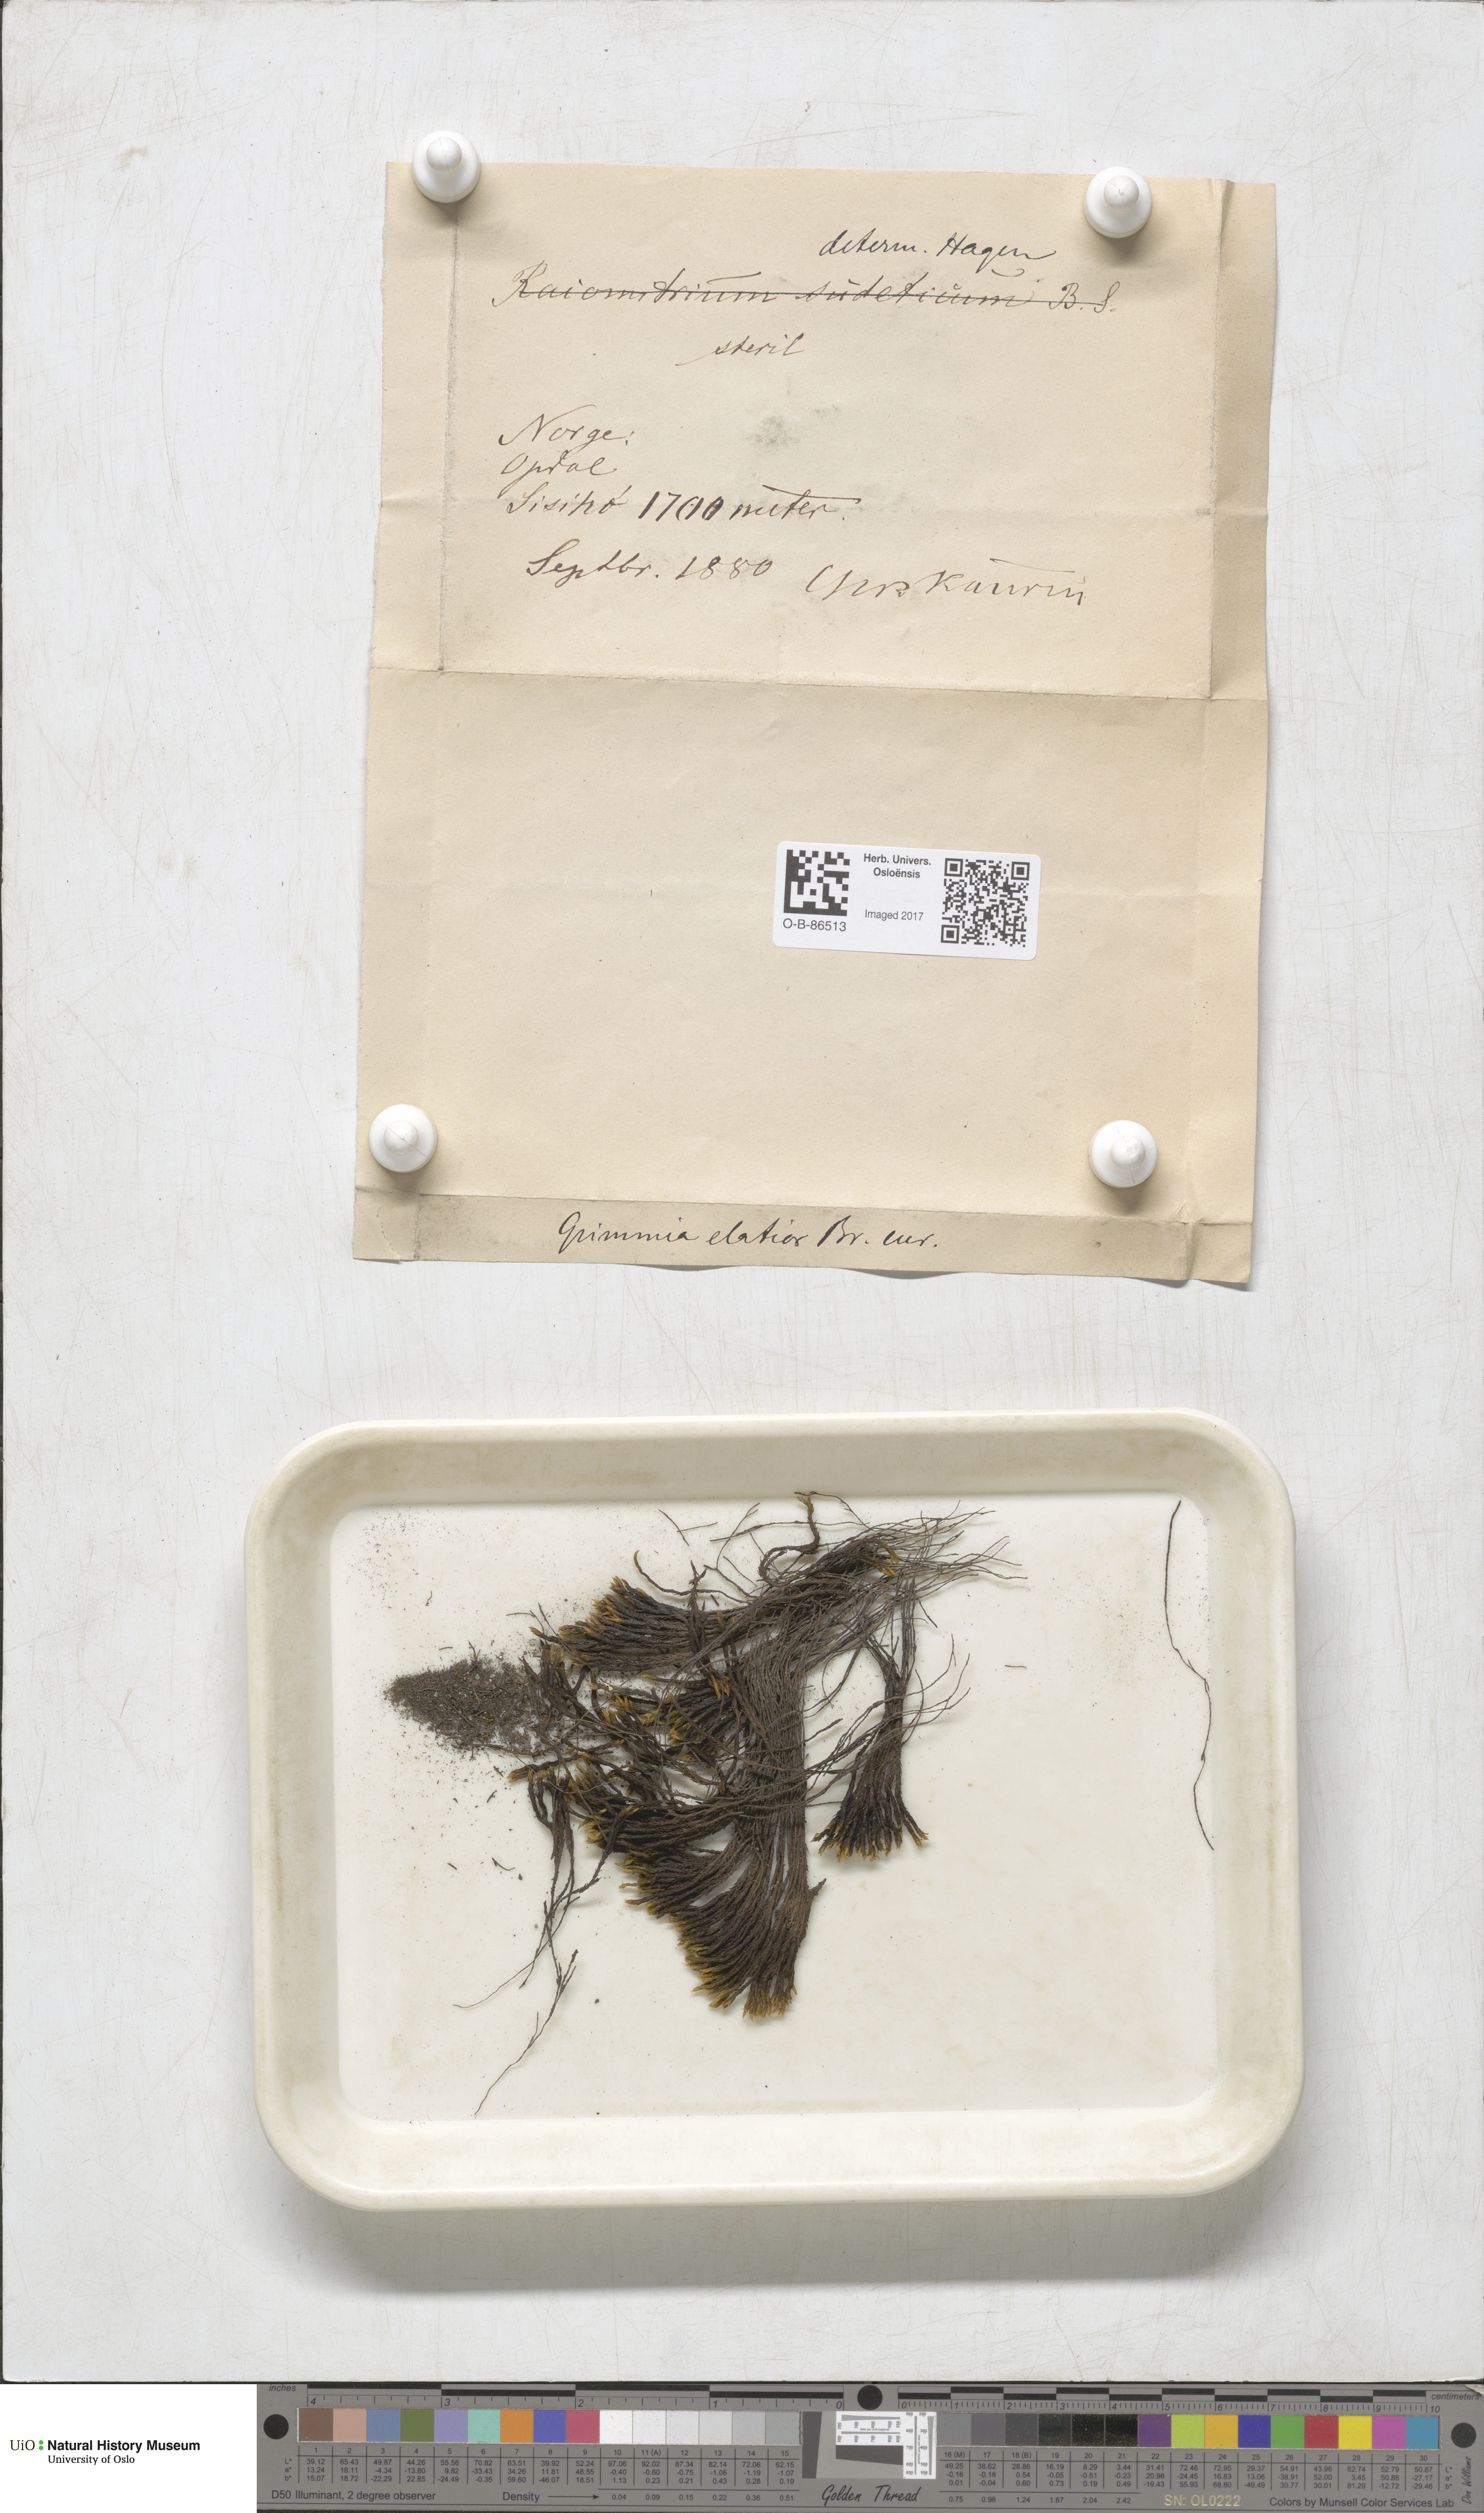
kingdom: Plantae
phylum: Bryophyta
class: Bryopsida
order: Grimmiales
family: Grimmiaceae
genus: Grimmia
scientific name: Grimmia elatior
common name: Large grimmia
